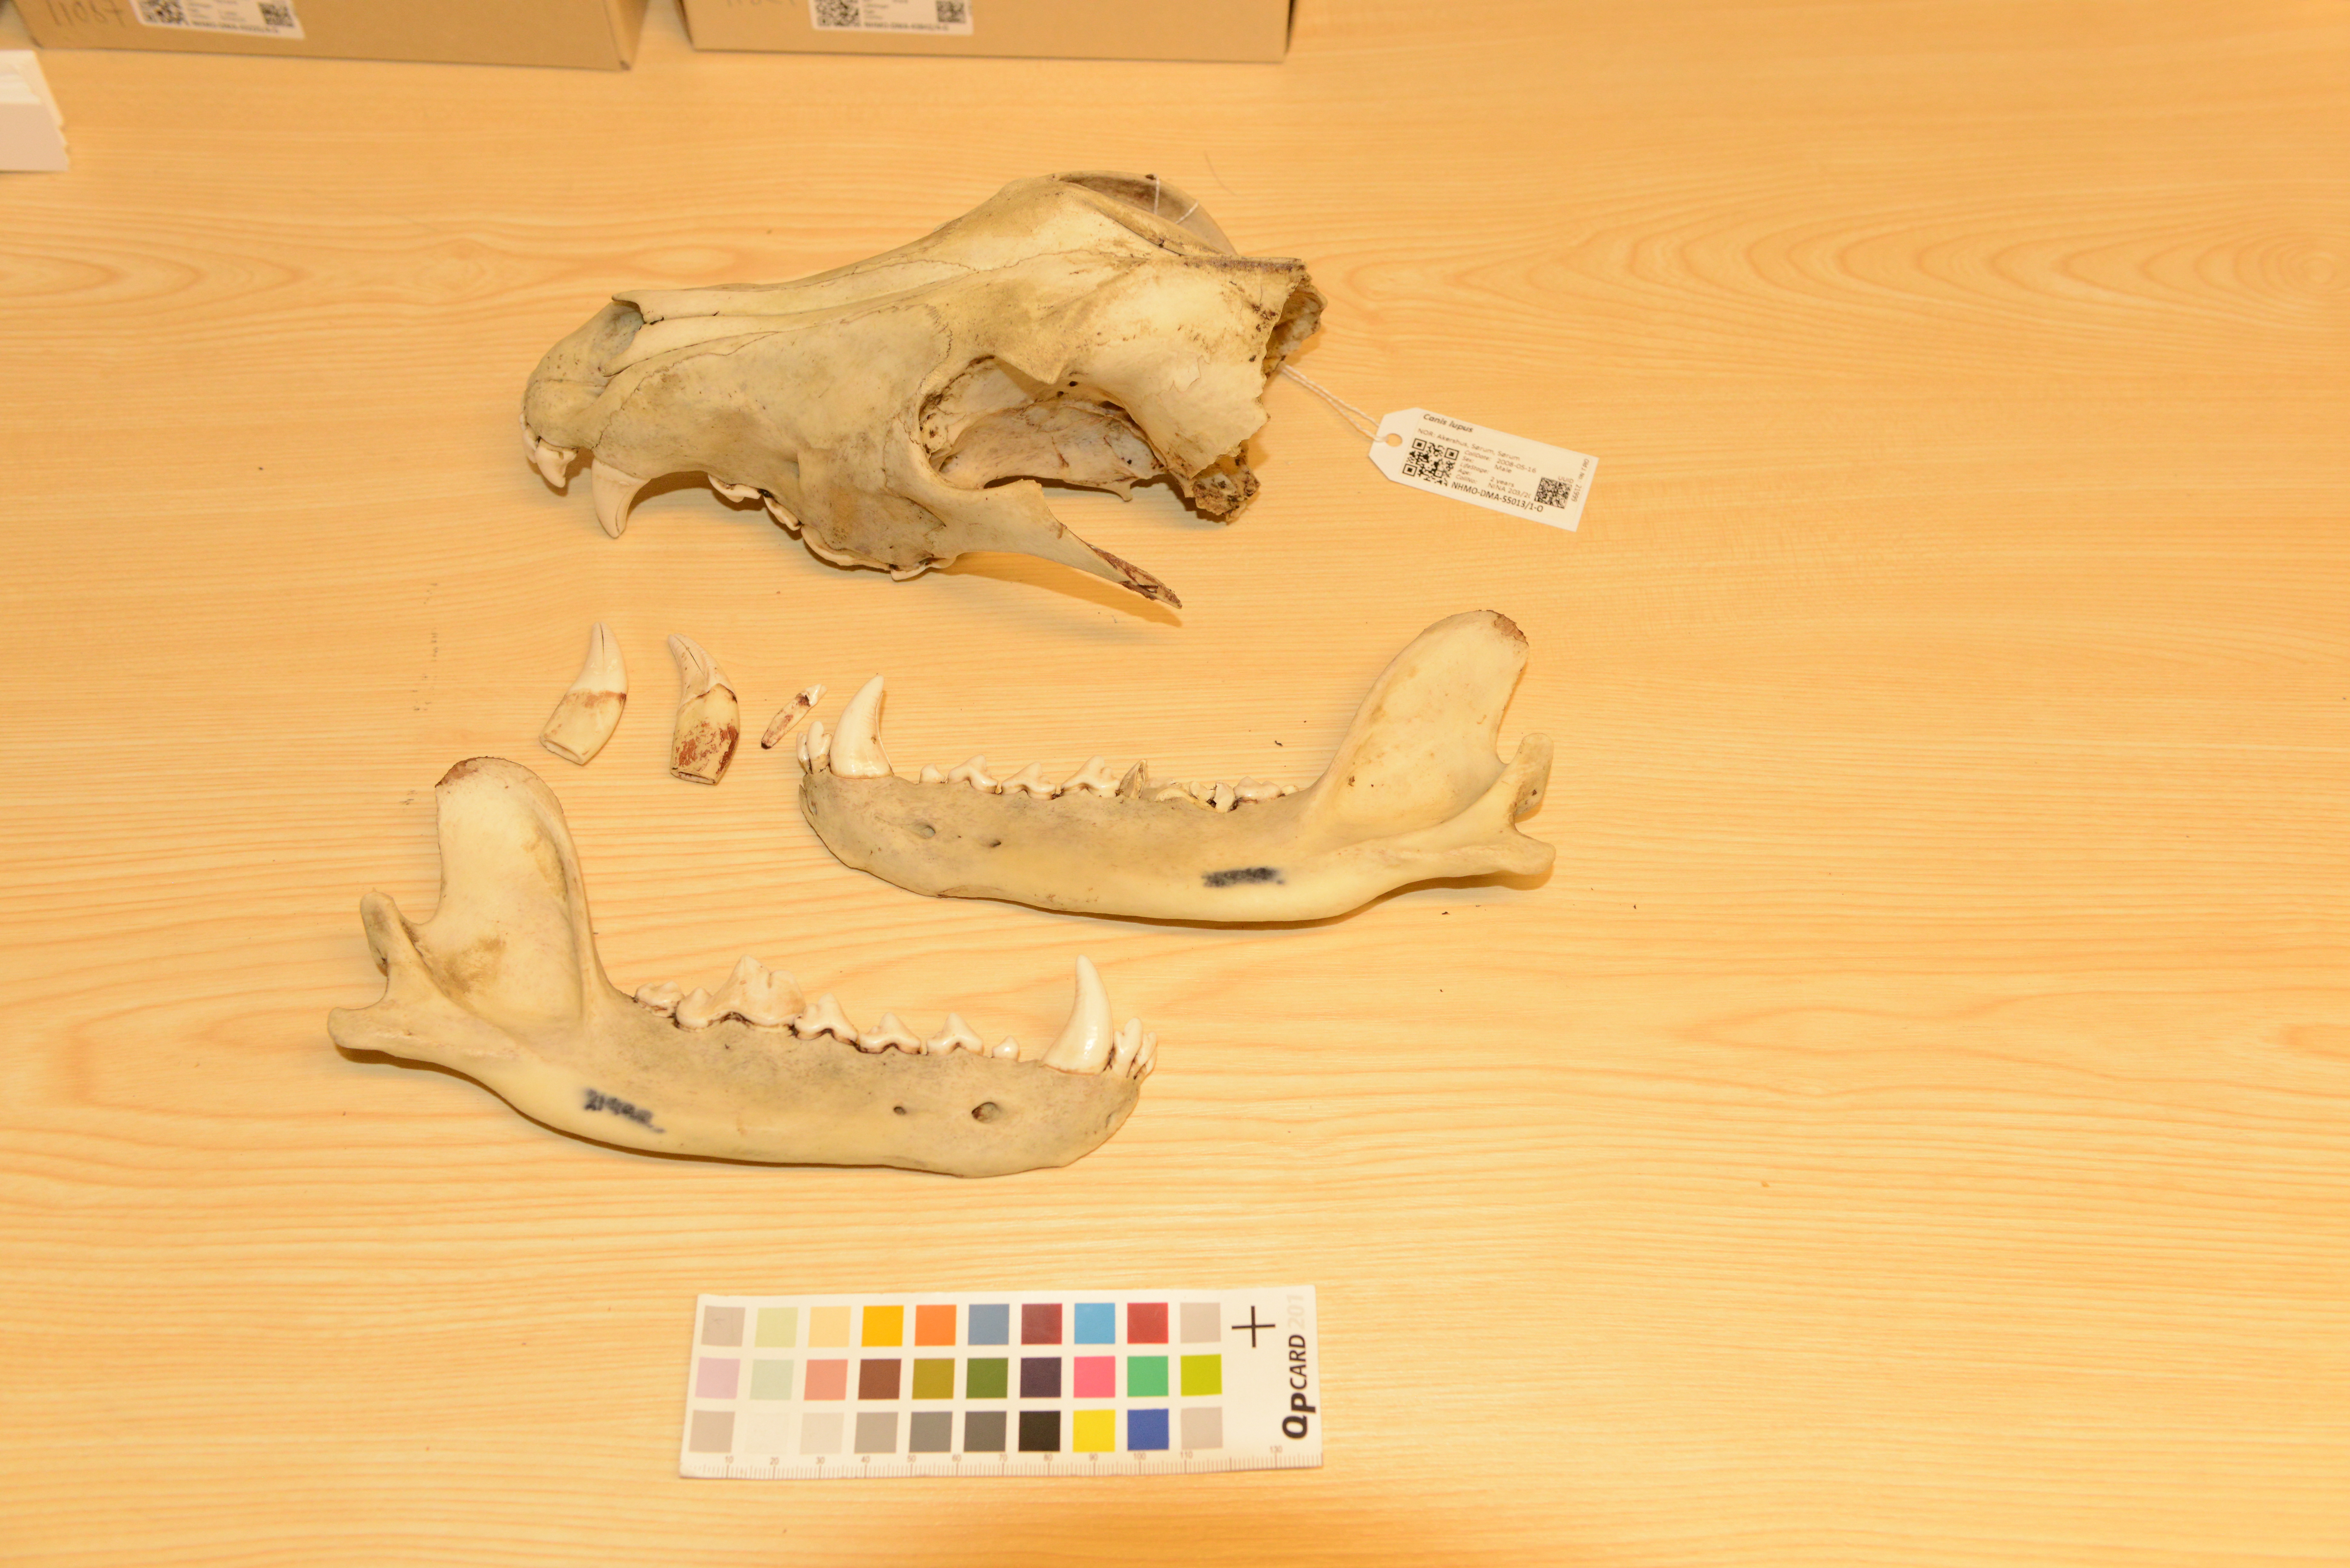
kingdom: Animalia
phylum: Chordata
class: Mammalia
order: Carnivora
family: Canidae
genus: Canis
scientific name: Canis lupus
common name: Gray wolf
